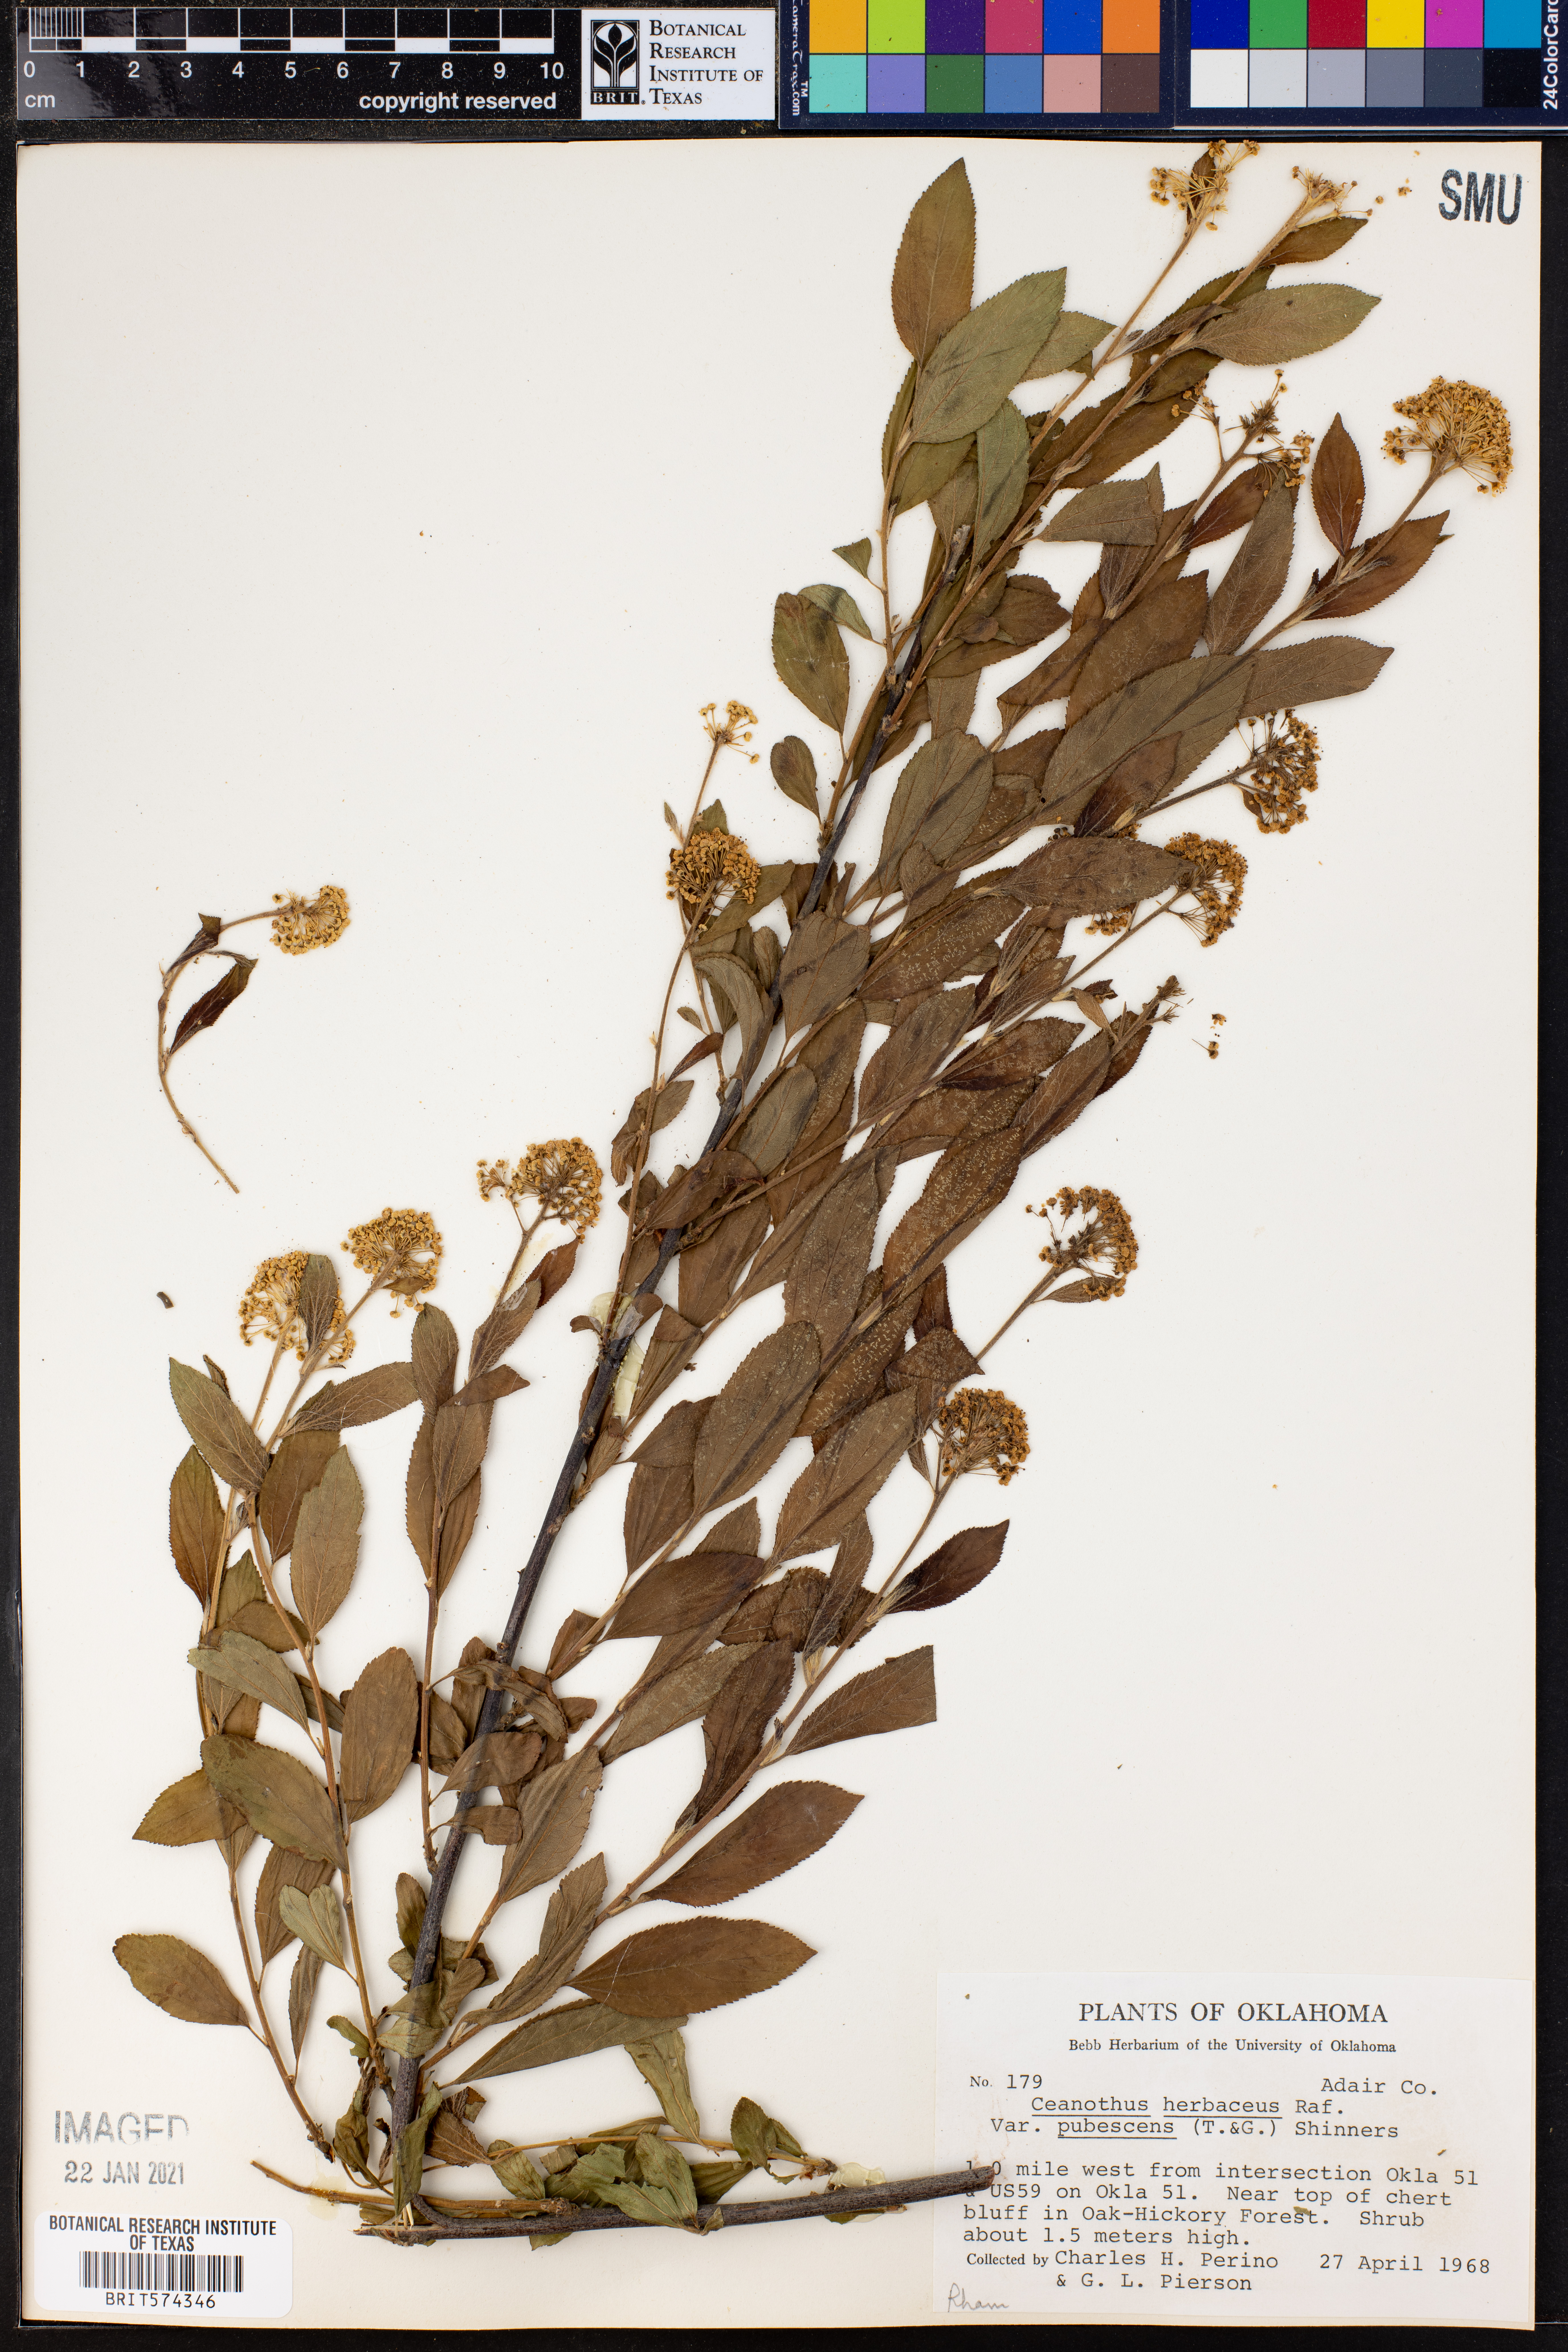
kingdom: Plantae
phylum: Tracheophyta
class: Magnoliopsida
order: Rosales
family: Rhamnaceae
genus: Ceanothus
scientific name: Ceanothus herbaceus
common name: Inland ceanothus
